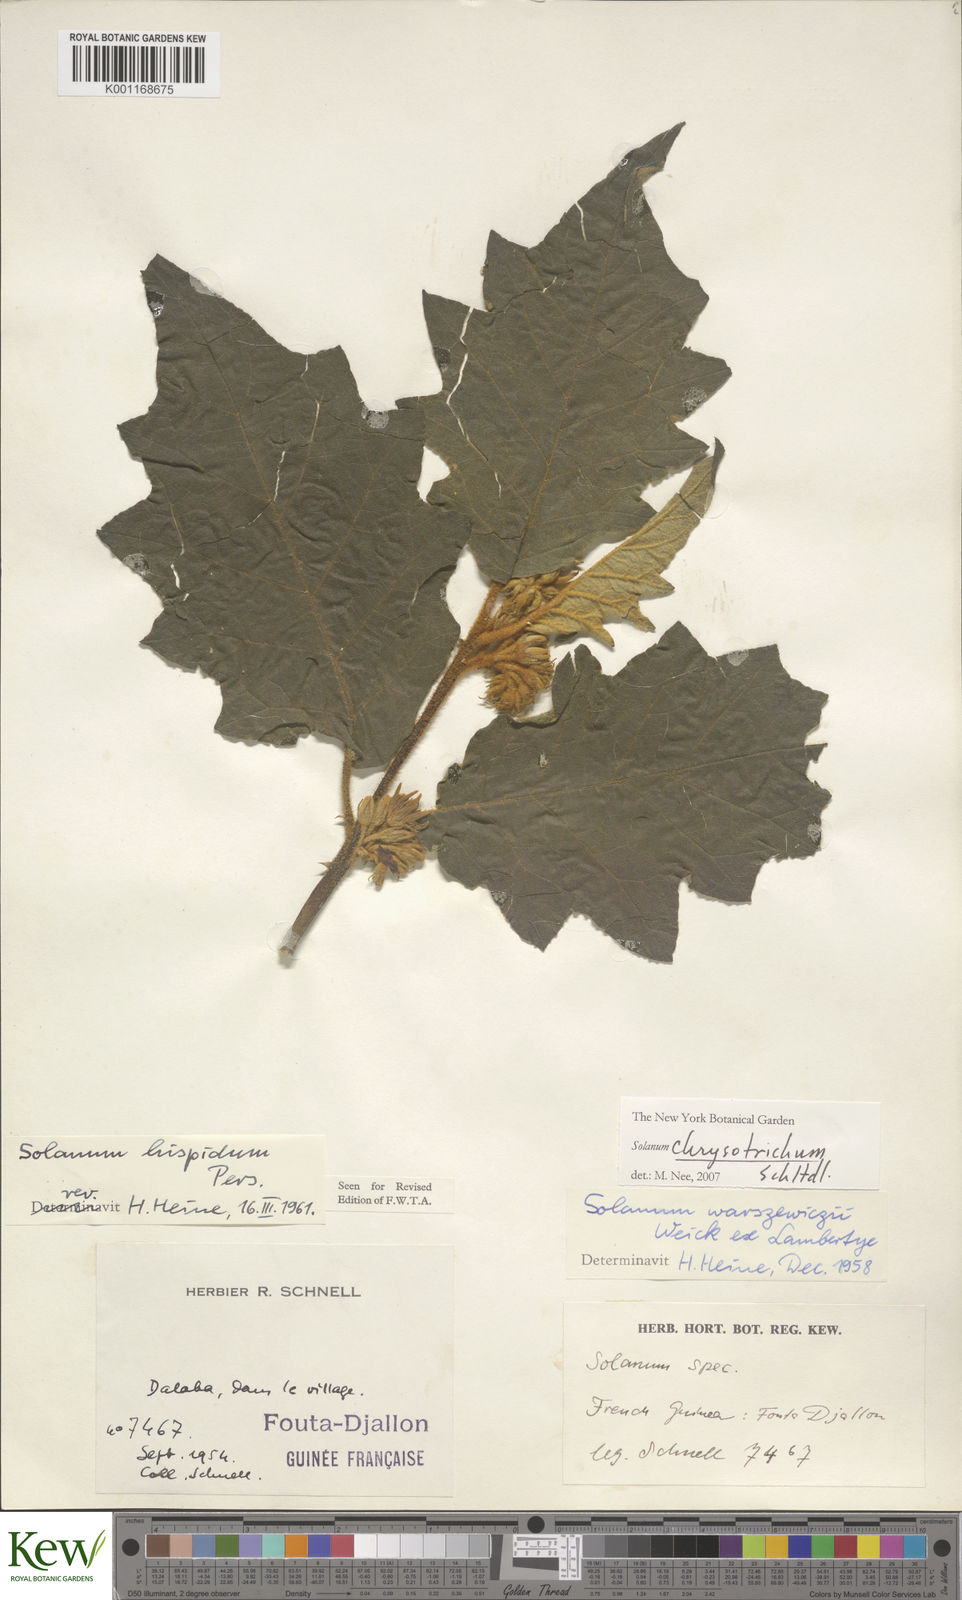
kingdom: Plantae
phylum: Tracheophyta
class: Magnoliopsida
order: Solanales
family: Solanaceae
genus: Solanum
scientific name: Solanum chrysotrichum
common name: Nightshade
